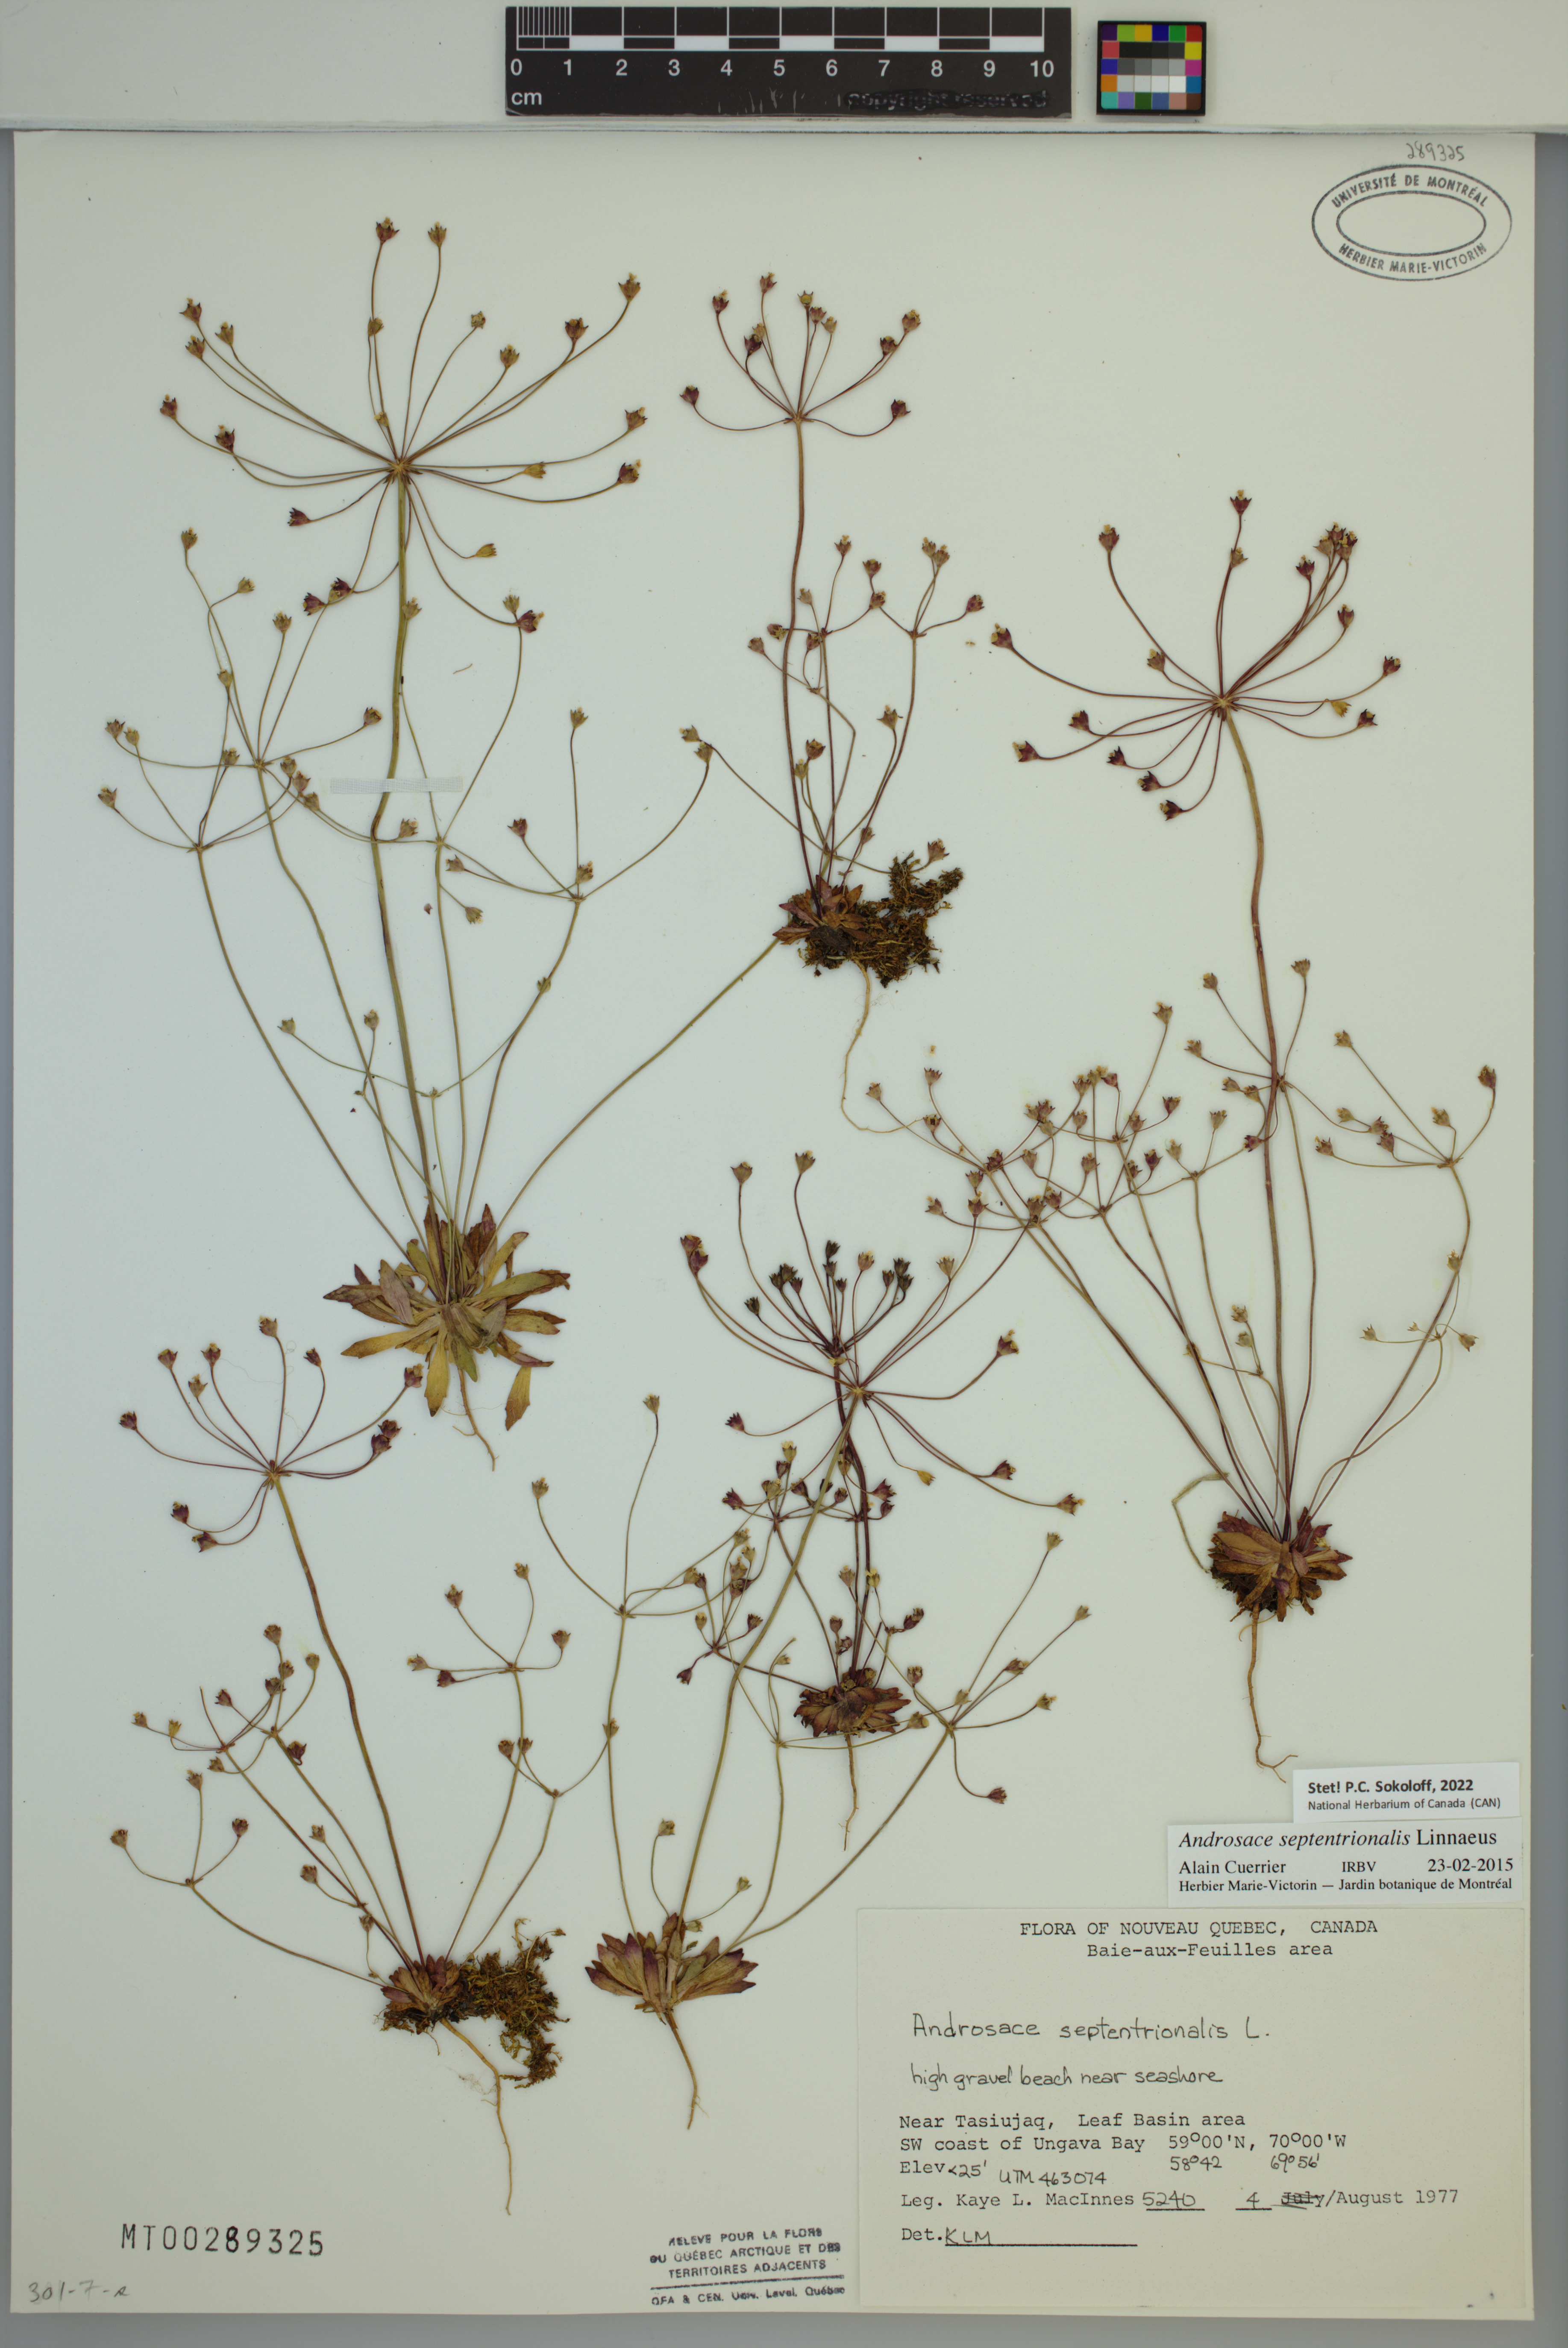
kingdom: Plantae
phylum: Tracheophyta
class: Magnoliopsida
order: Ericales
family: Primulaceae
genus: Androsace
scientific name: Androsace septentrionalis
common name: Hairy northern fairy-candelabra
